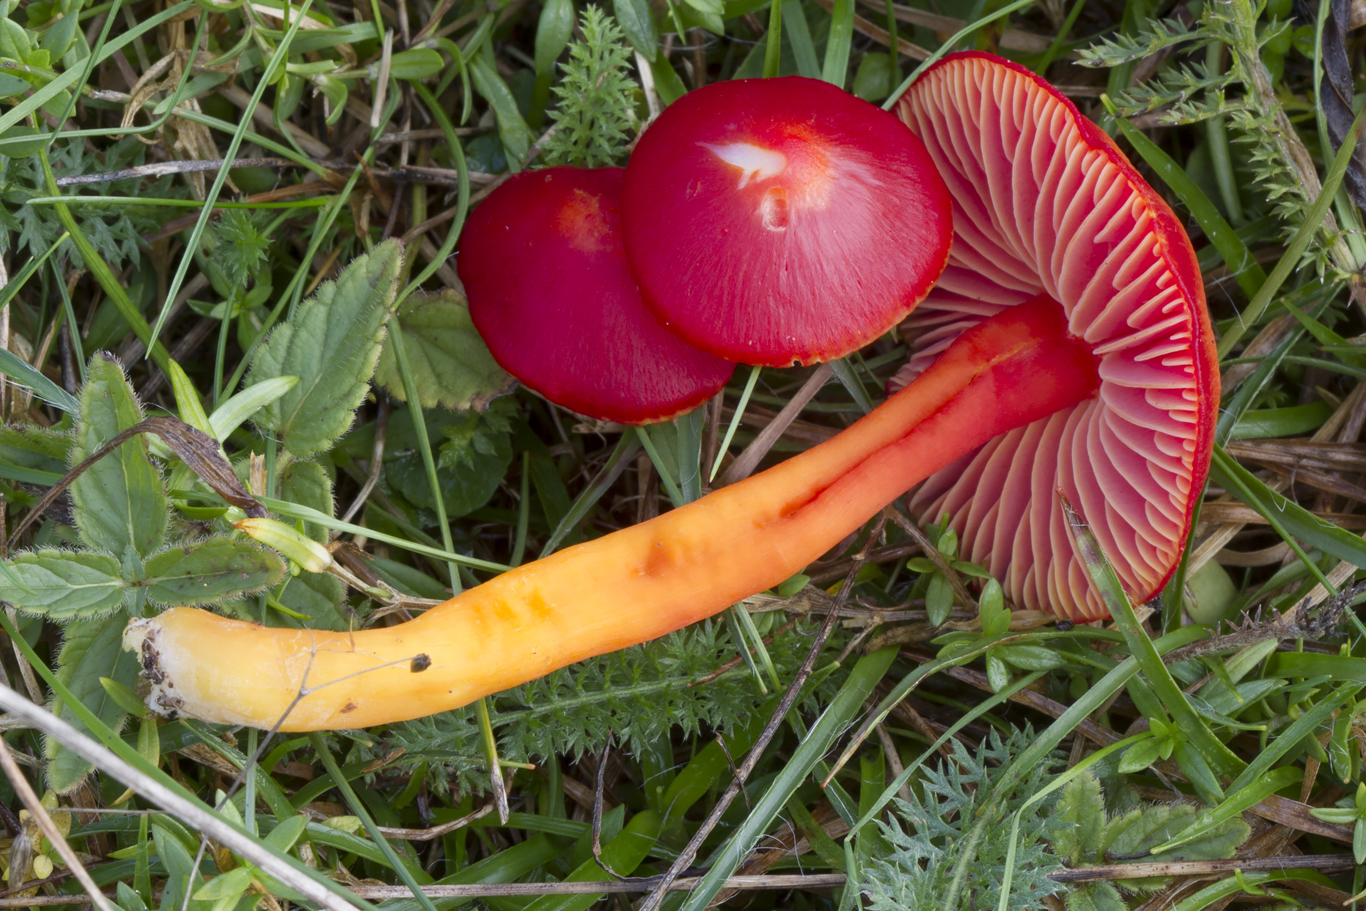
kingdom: Fungi
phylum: Basidiomycota
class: Agaricomycetes
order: Agaricales
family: Hygrophoraceae
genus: Hygrocybe
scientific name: Hygrocybe coccinea
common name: cinnober-vokshat
